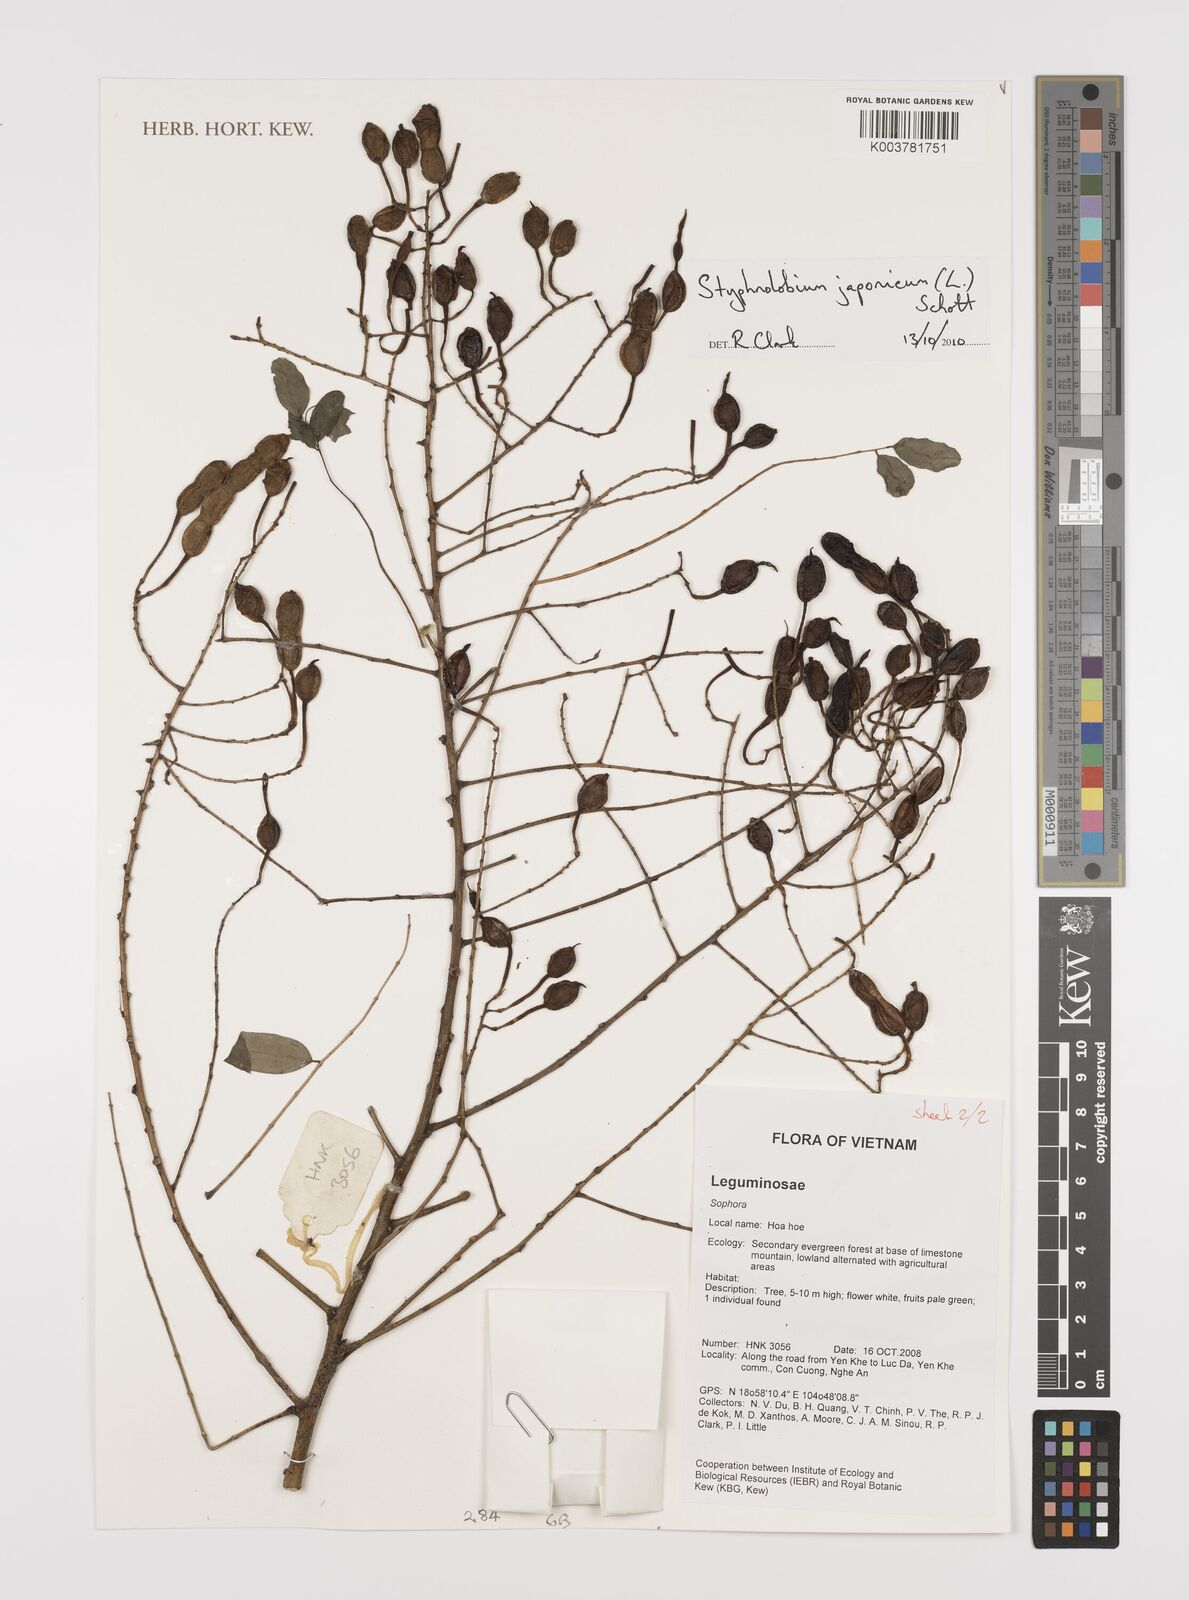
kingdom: Plantae
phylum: Tracheophyta
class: Magnoliopsida
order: Fabales
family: Fabaceae
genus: Styphnolobium
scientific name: Styphnolobium japonicum
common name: Chinese scholartree
